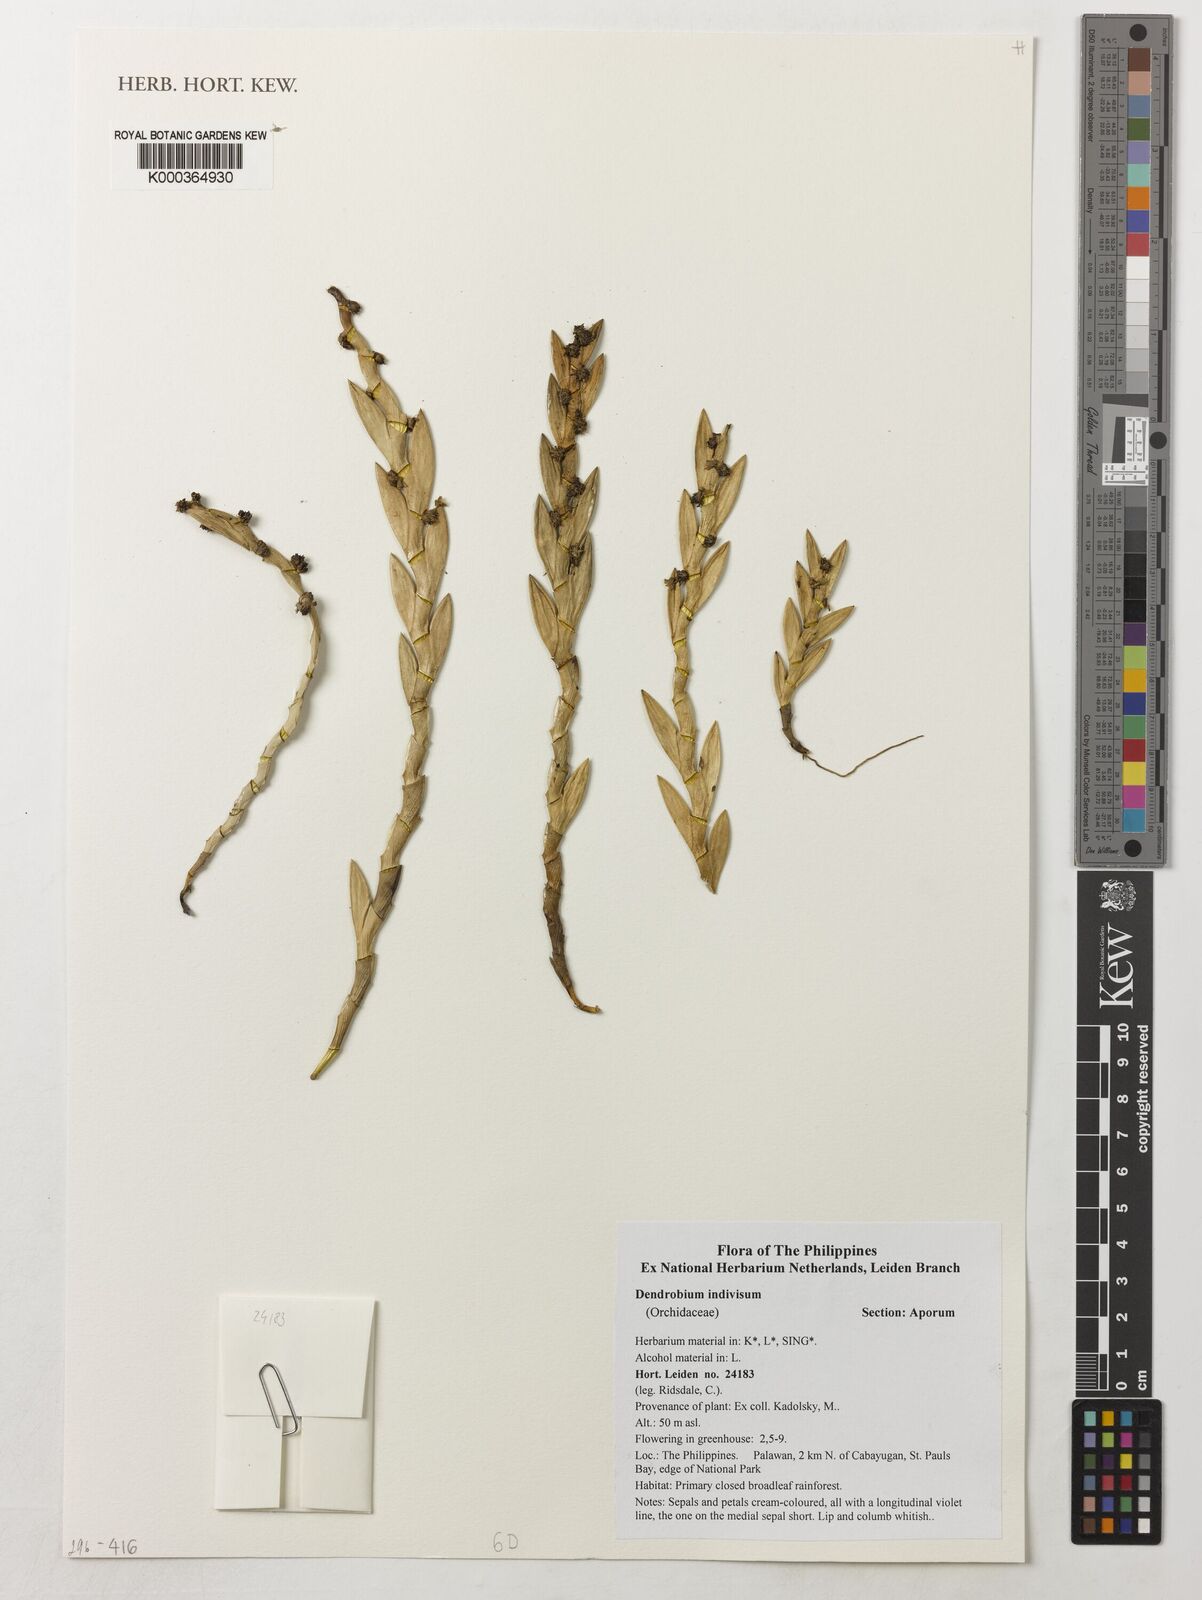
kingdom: Plantae
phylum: Tracheophyta
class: Liliopsida
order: Asparagales
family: Orchidaceae
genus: Dendrobium
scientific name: Dendrobium indivisum
